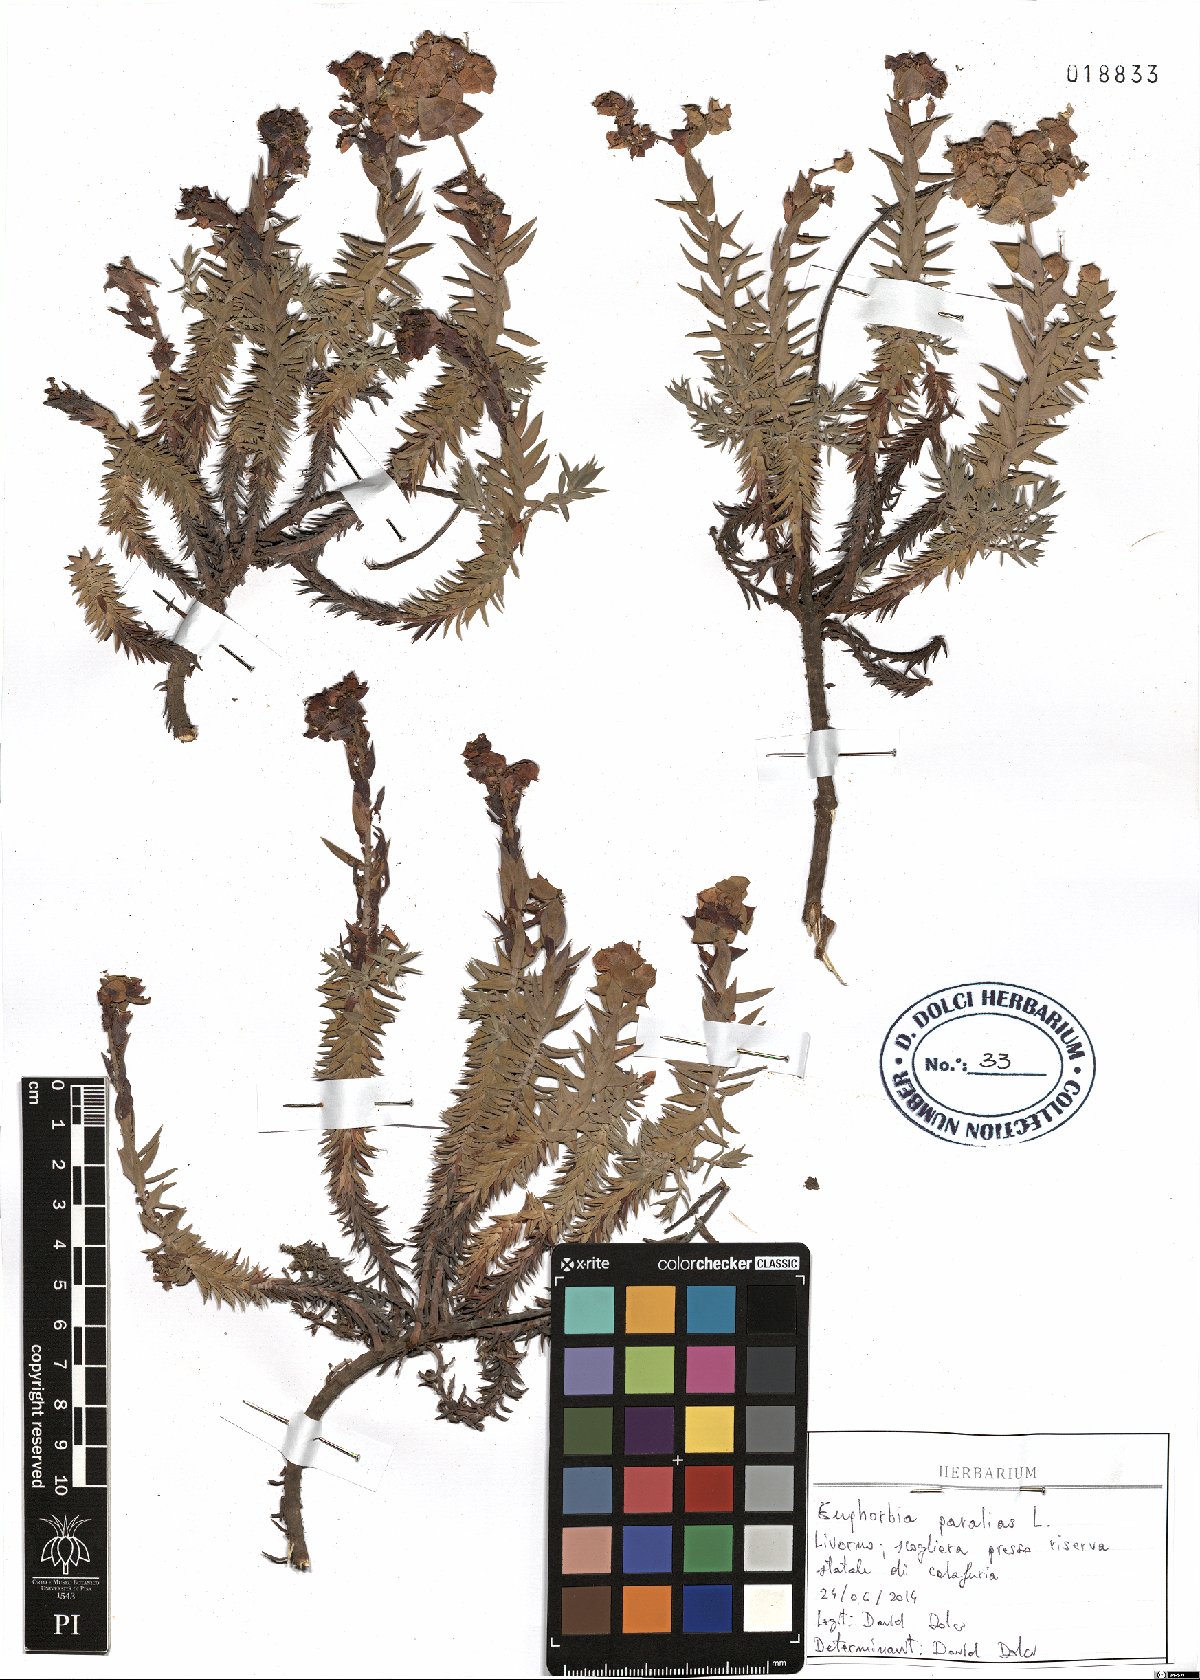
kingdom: Plantae
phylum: Tracheophyta
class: Magnoliopsida
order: Malpighiales
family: Euphorbiaceae
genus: Euphorbia
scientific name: Euphorbia paralias
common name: Sea spurge
